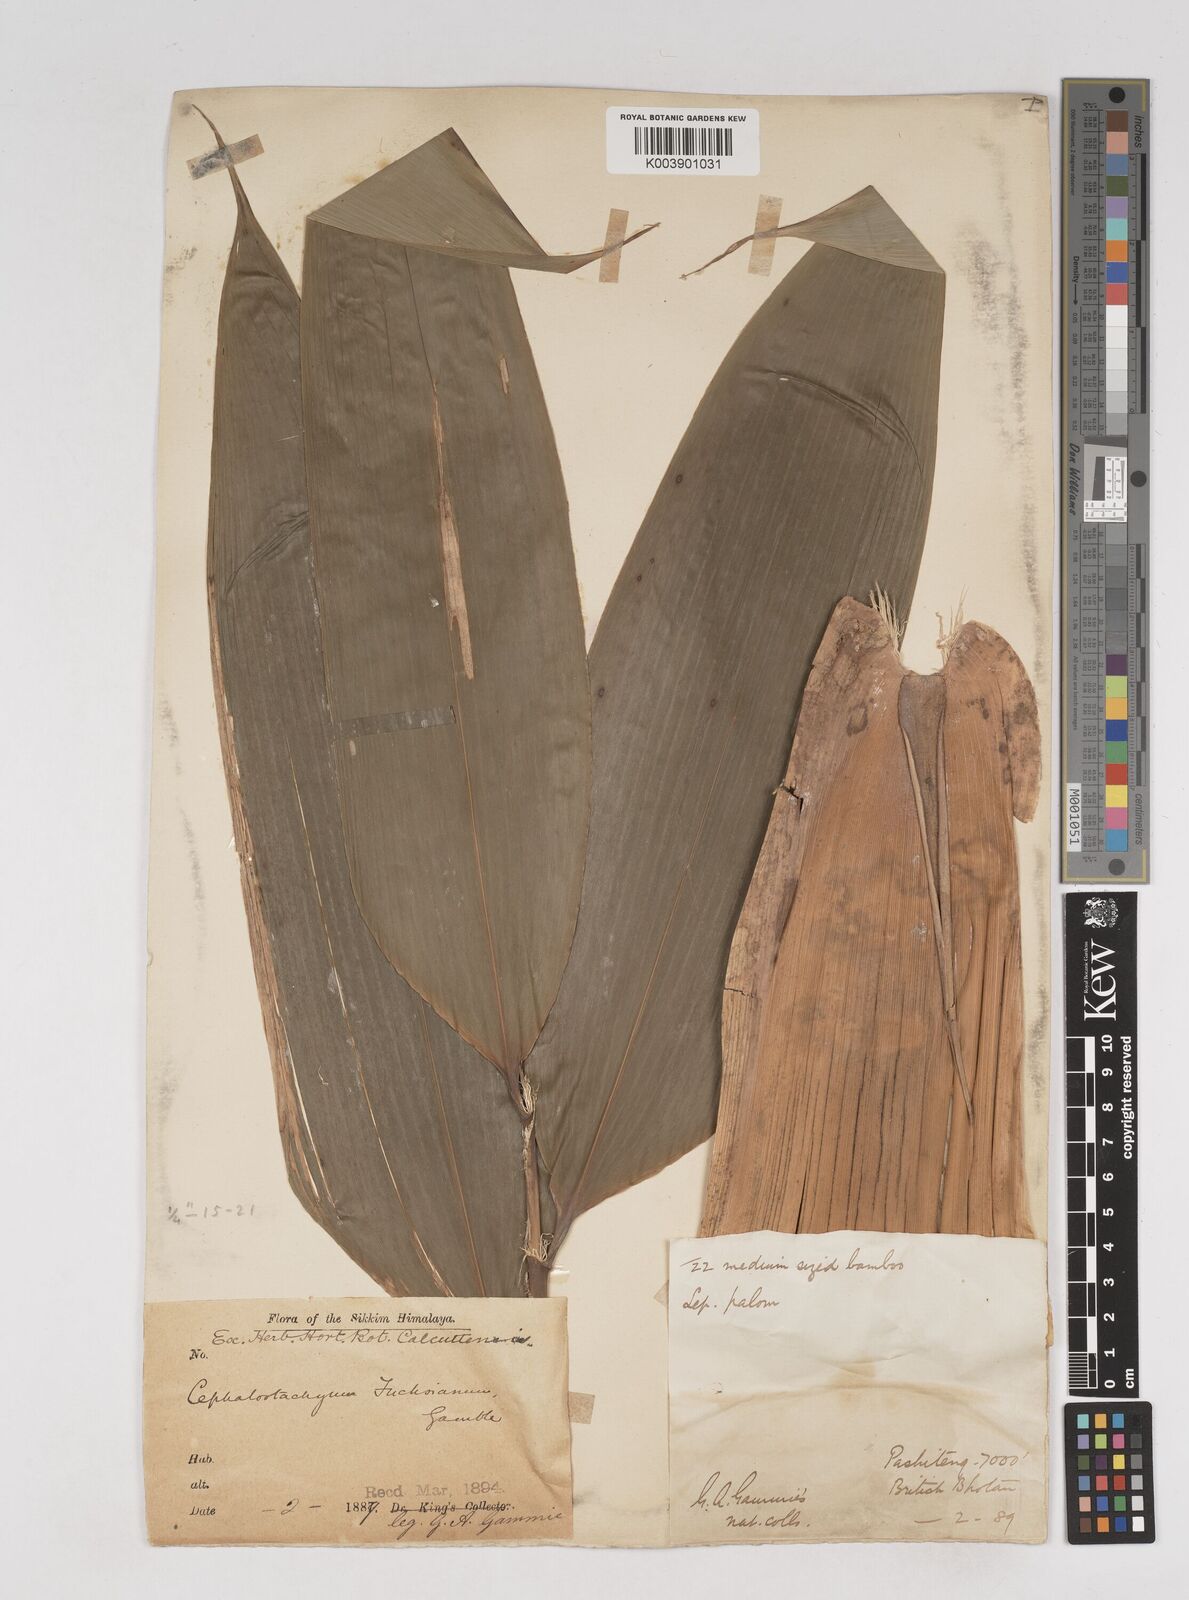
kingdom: Plantae
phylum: Tracheophyta
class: Liliopsida
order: Poales
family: Poaceae
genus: Cephalostachyum
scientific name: Cephalostachyum latifolium
